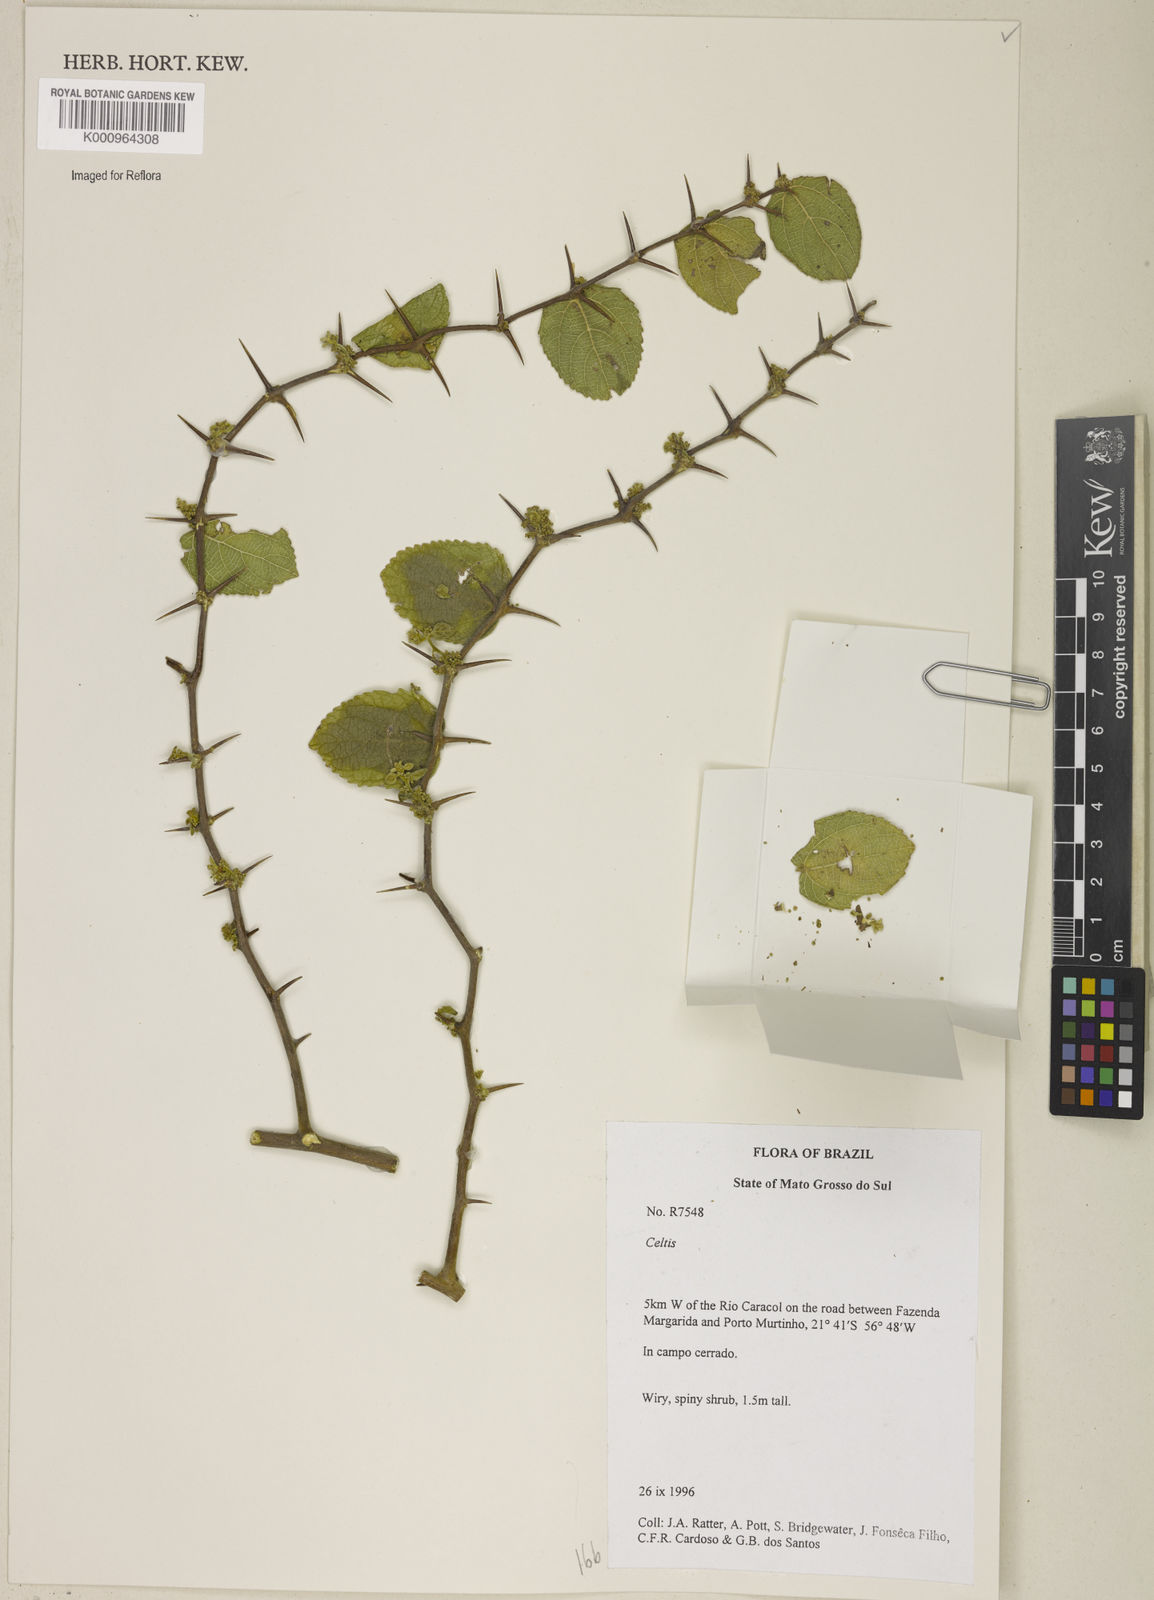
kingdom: Plantae
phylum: Tracheophyta
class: Magnoliopsida
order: Rosales
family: Cannabaceae
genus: Celtis
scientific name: Celtis
